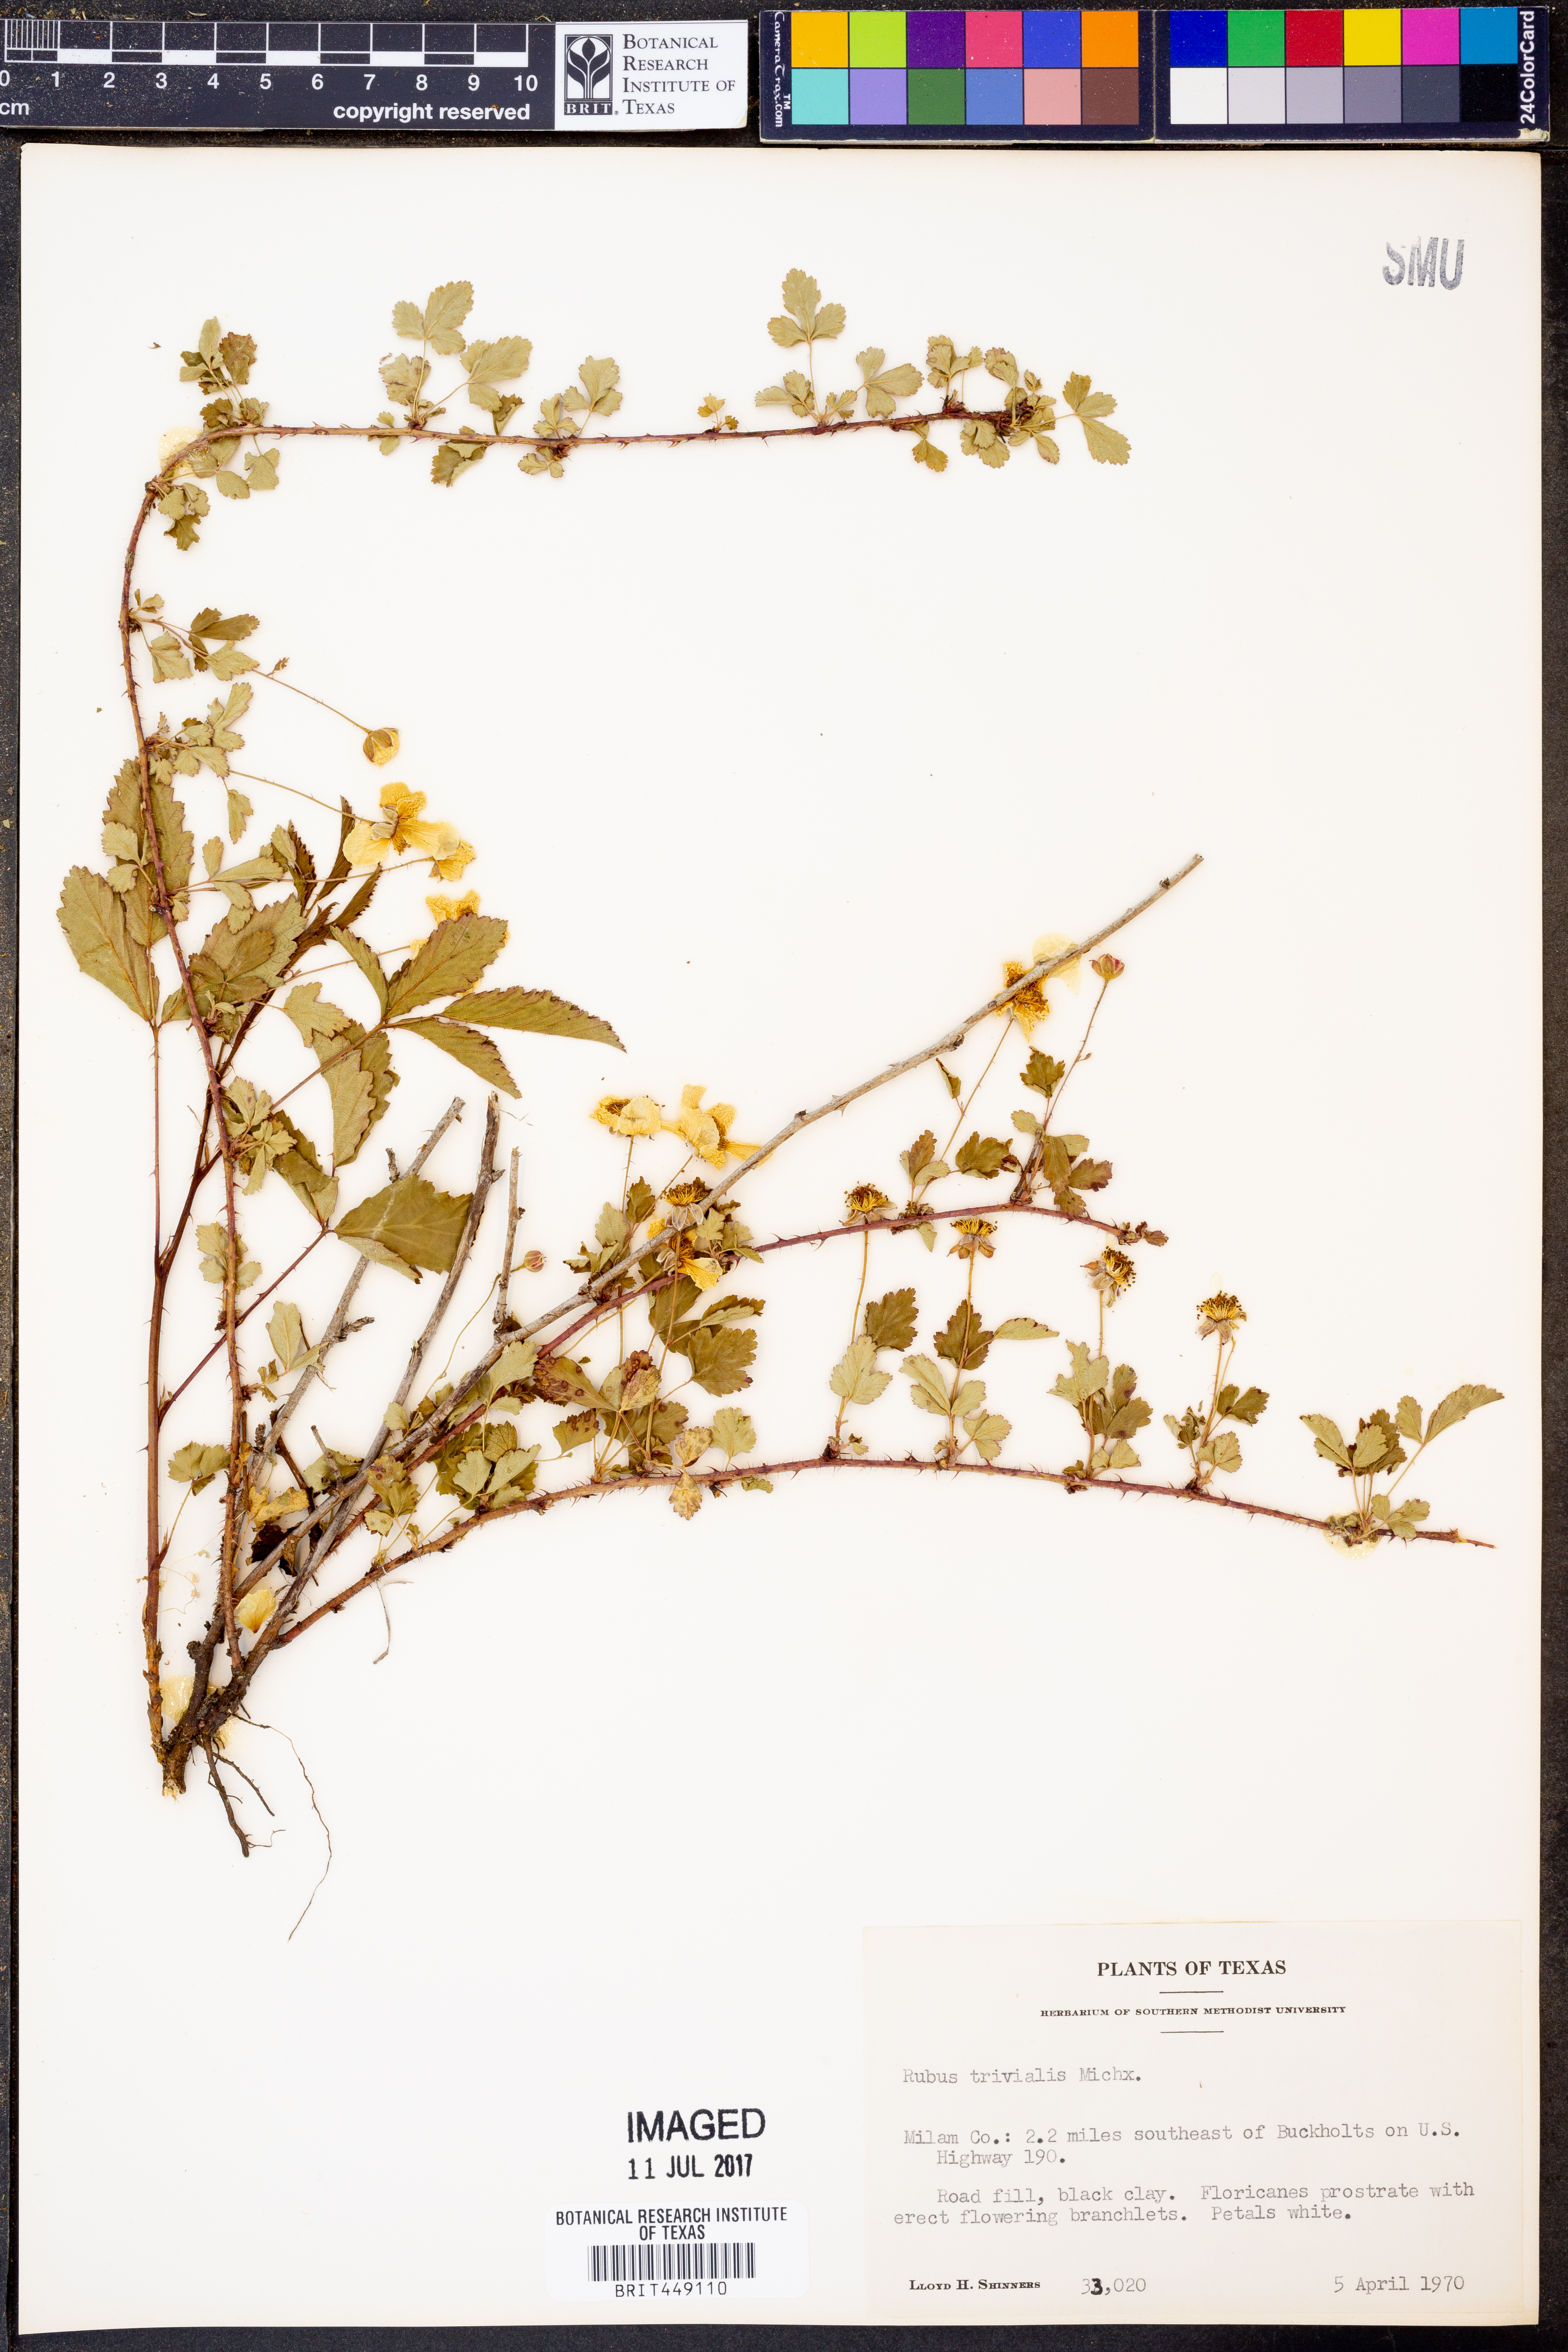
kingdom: Plantae
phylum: Tracheophyta
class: Magnoliopsida
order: Rosales
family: Rosaceae
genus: Rubus
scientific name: Rubus trivialis
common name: Southern dewberry
